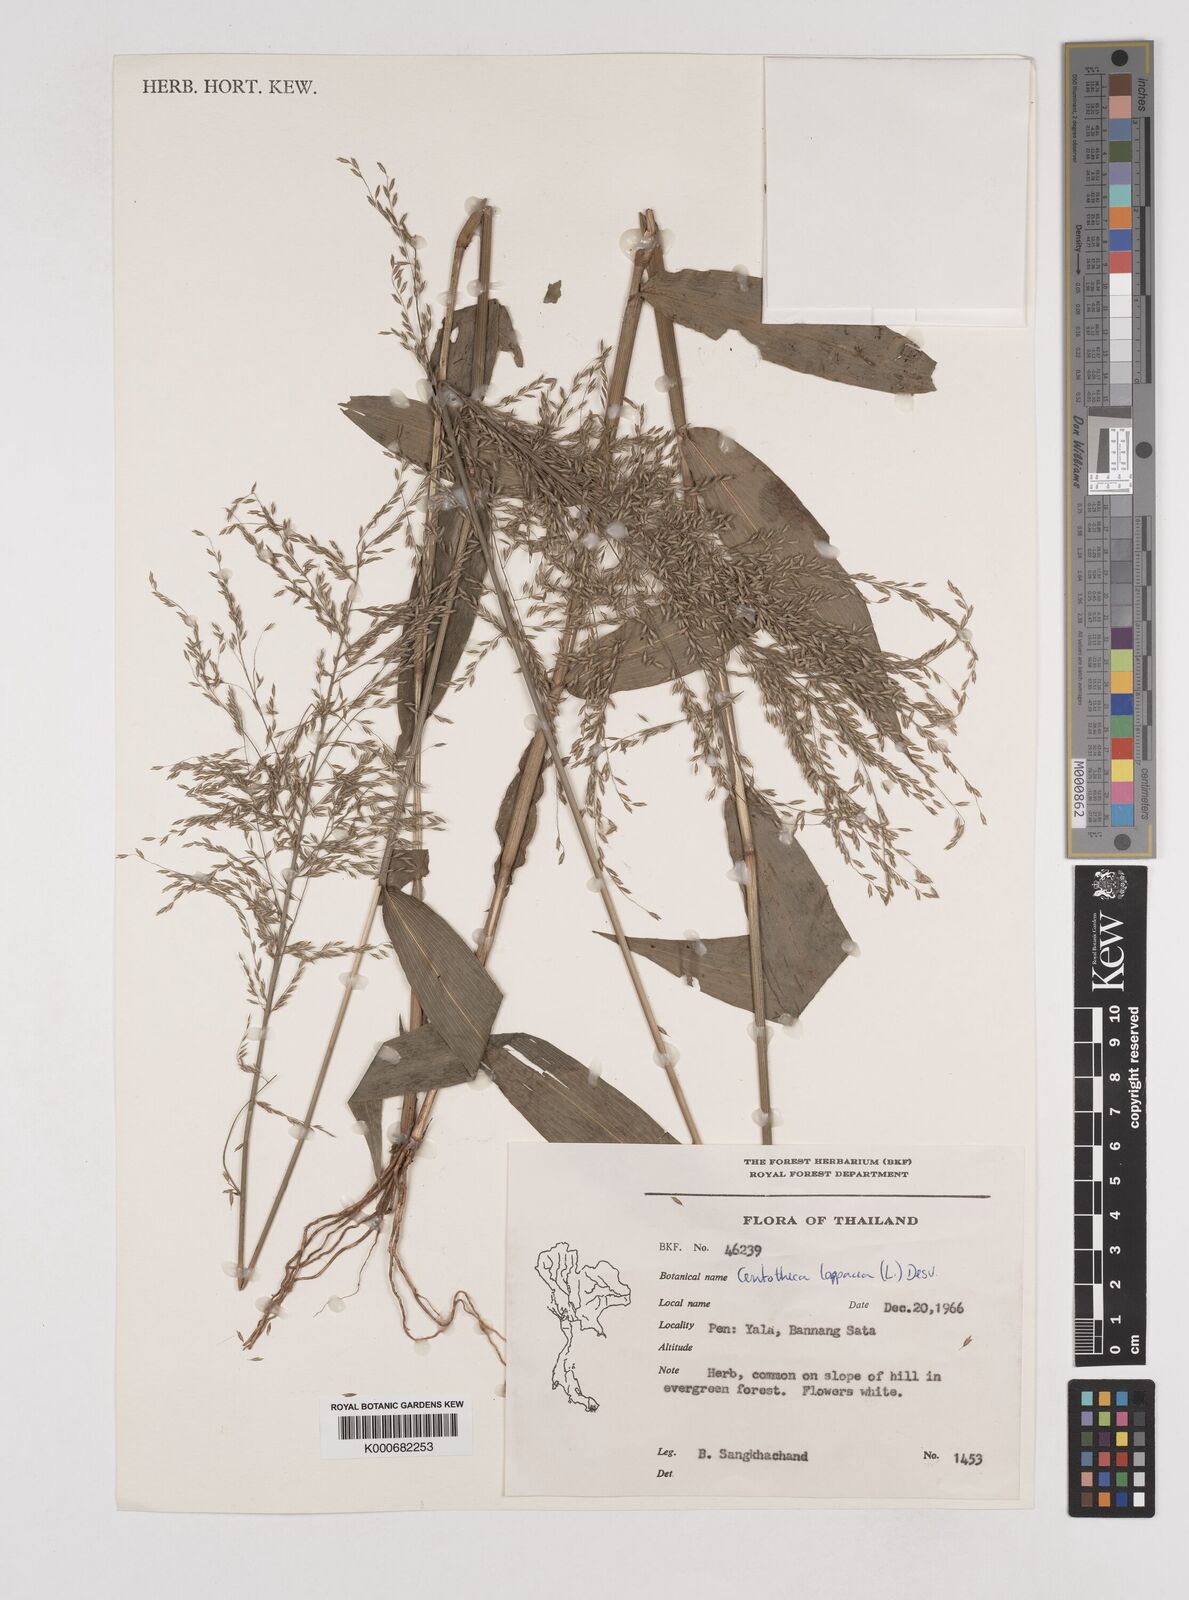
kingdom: Plantae
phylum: Tracheophyta
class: Liliopsida
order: Poales
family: Poaceae
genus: Centotheca
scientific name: Centotheca lappacea
